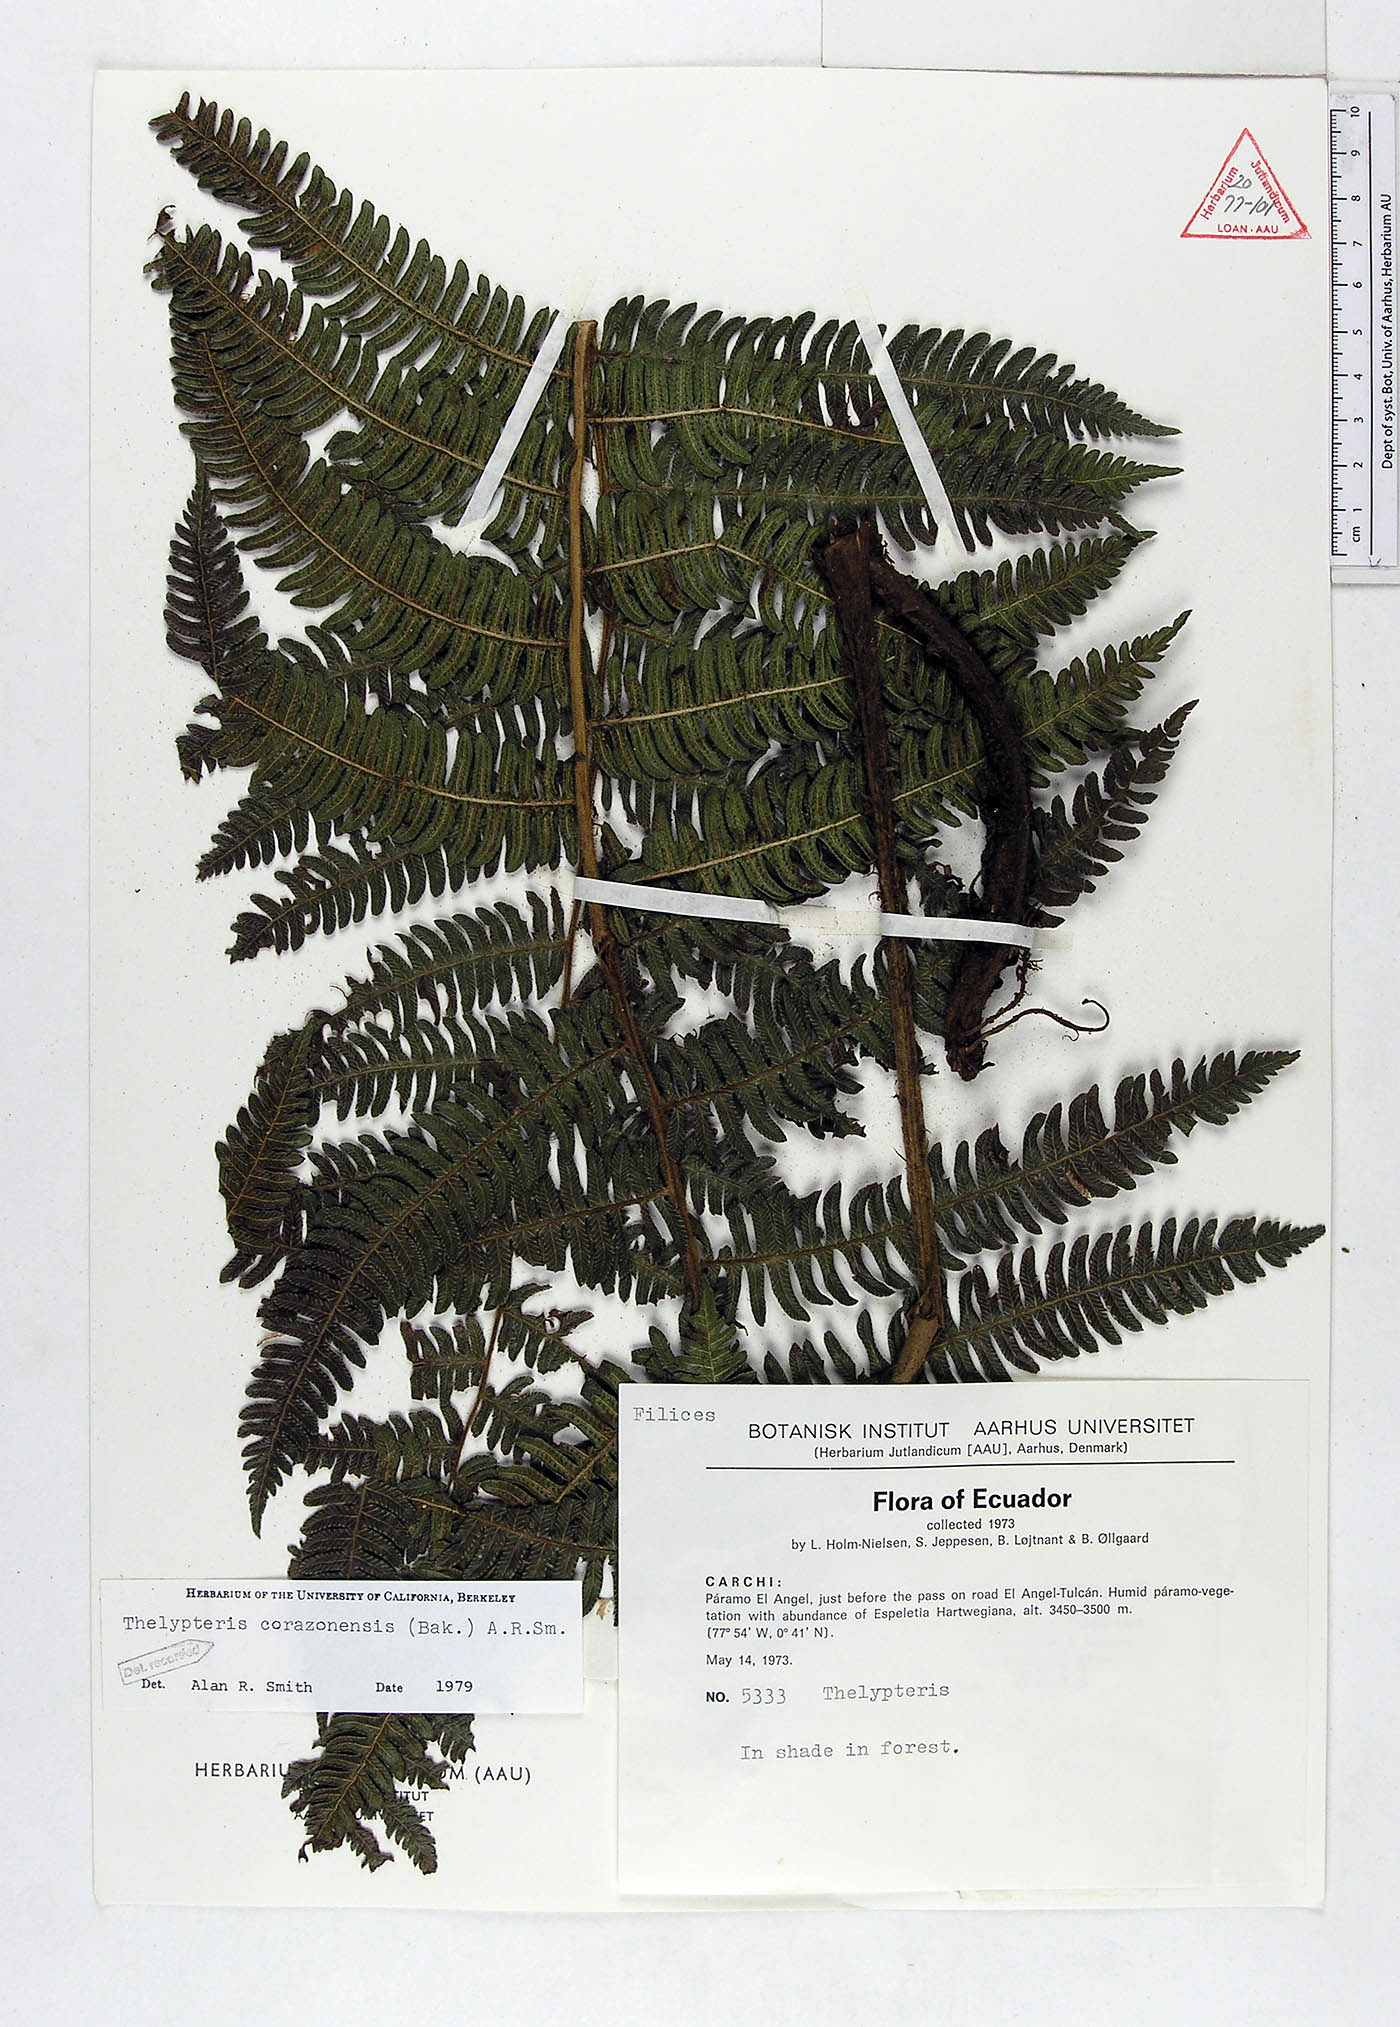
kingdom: Plantae
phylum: Tracheophyta
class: Polypodiopsida
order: Polypodiales
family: Thelypteridaceae
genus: Amauropelta
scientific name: Amauropelta corazonensis
